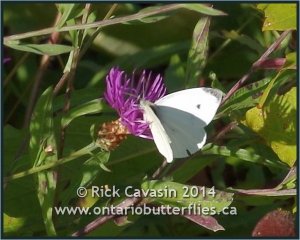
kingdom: Animalia
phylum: Arthropoda
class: Insecta
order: Lepidoptera
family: Pieridae
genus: Pieris
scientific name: Pieris rapae
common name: Cabbage White
